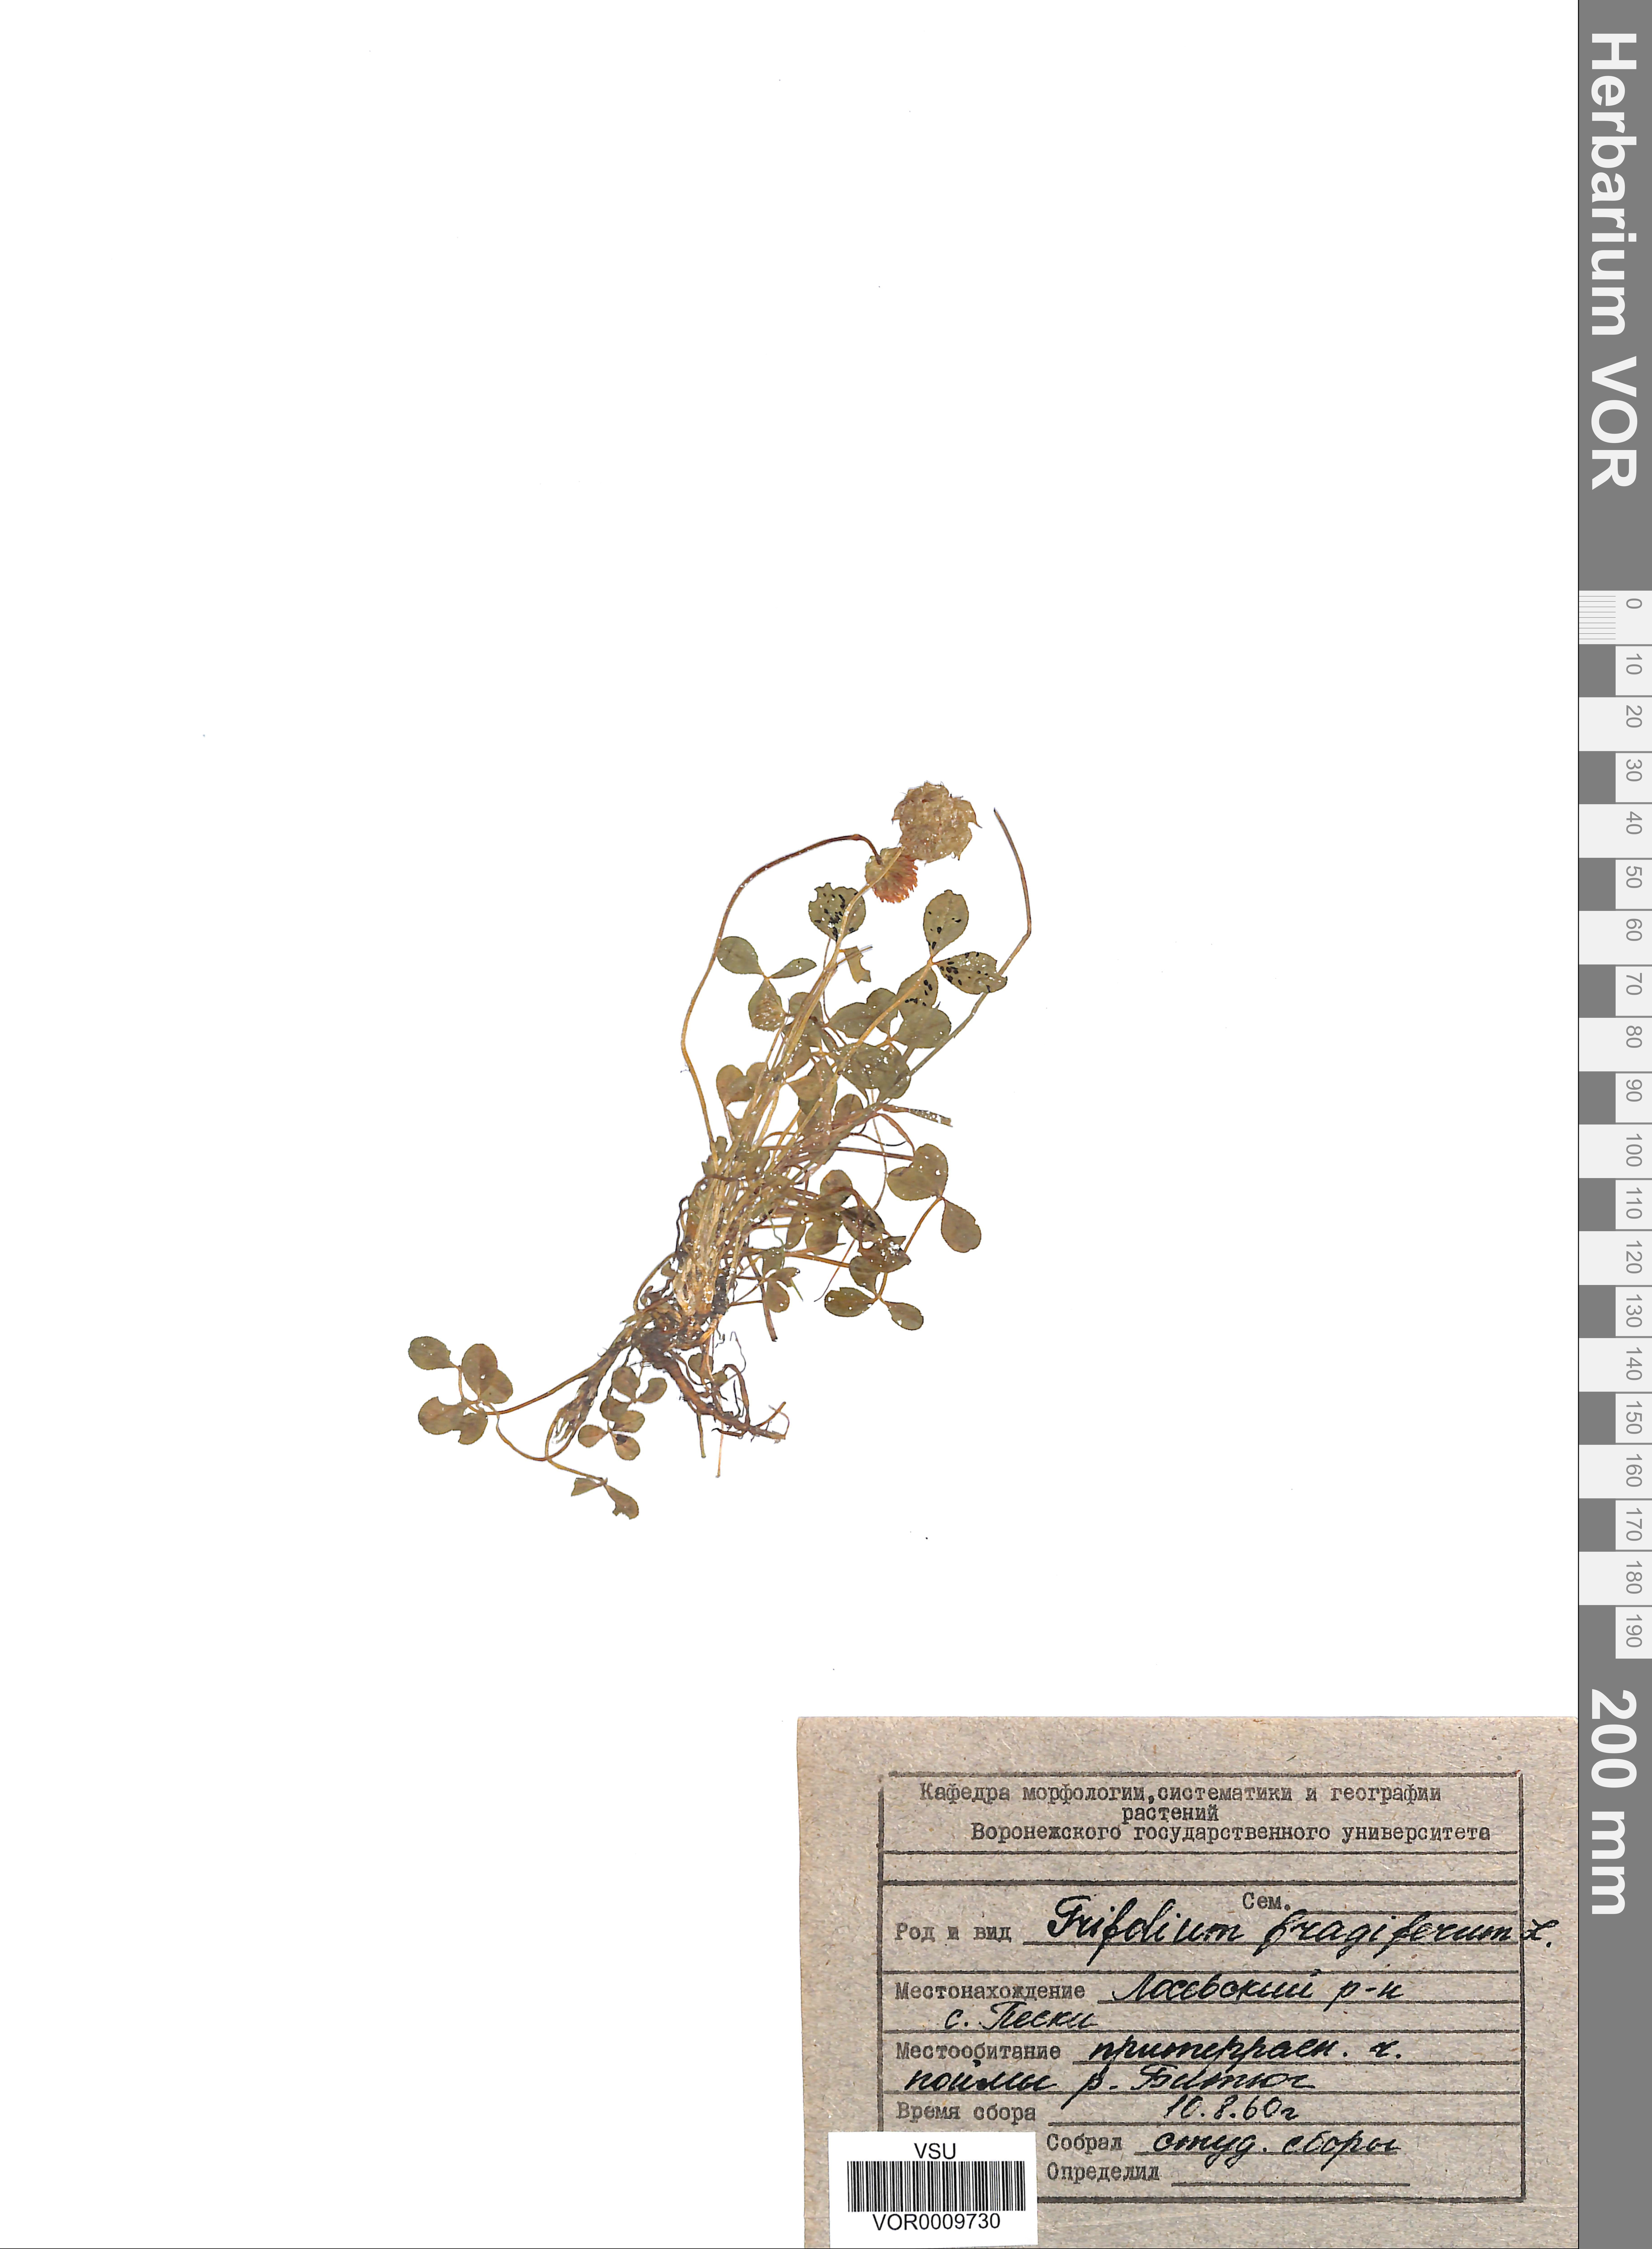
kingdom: Plantae
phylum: Tracheophyta
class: Magnoliopsida
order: Fabales
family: Fabaceae
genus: Trifolium
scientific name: Trifolium fragiferum
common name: Strawberry clover
